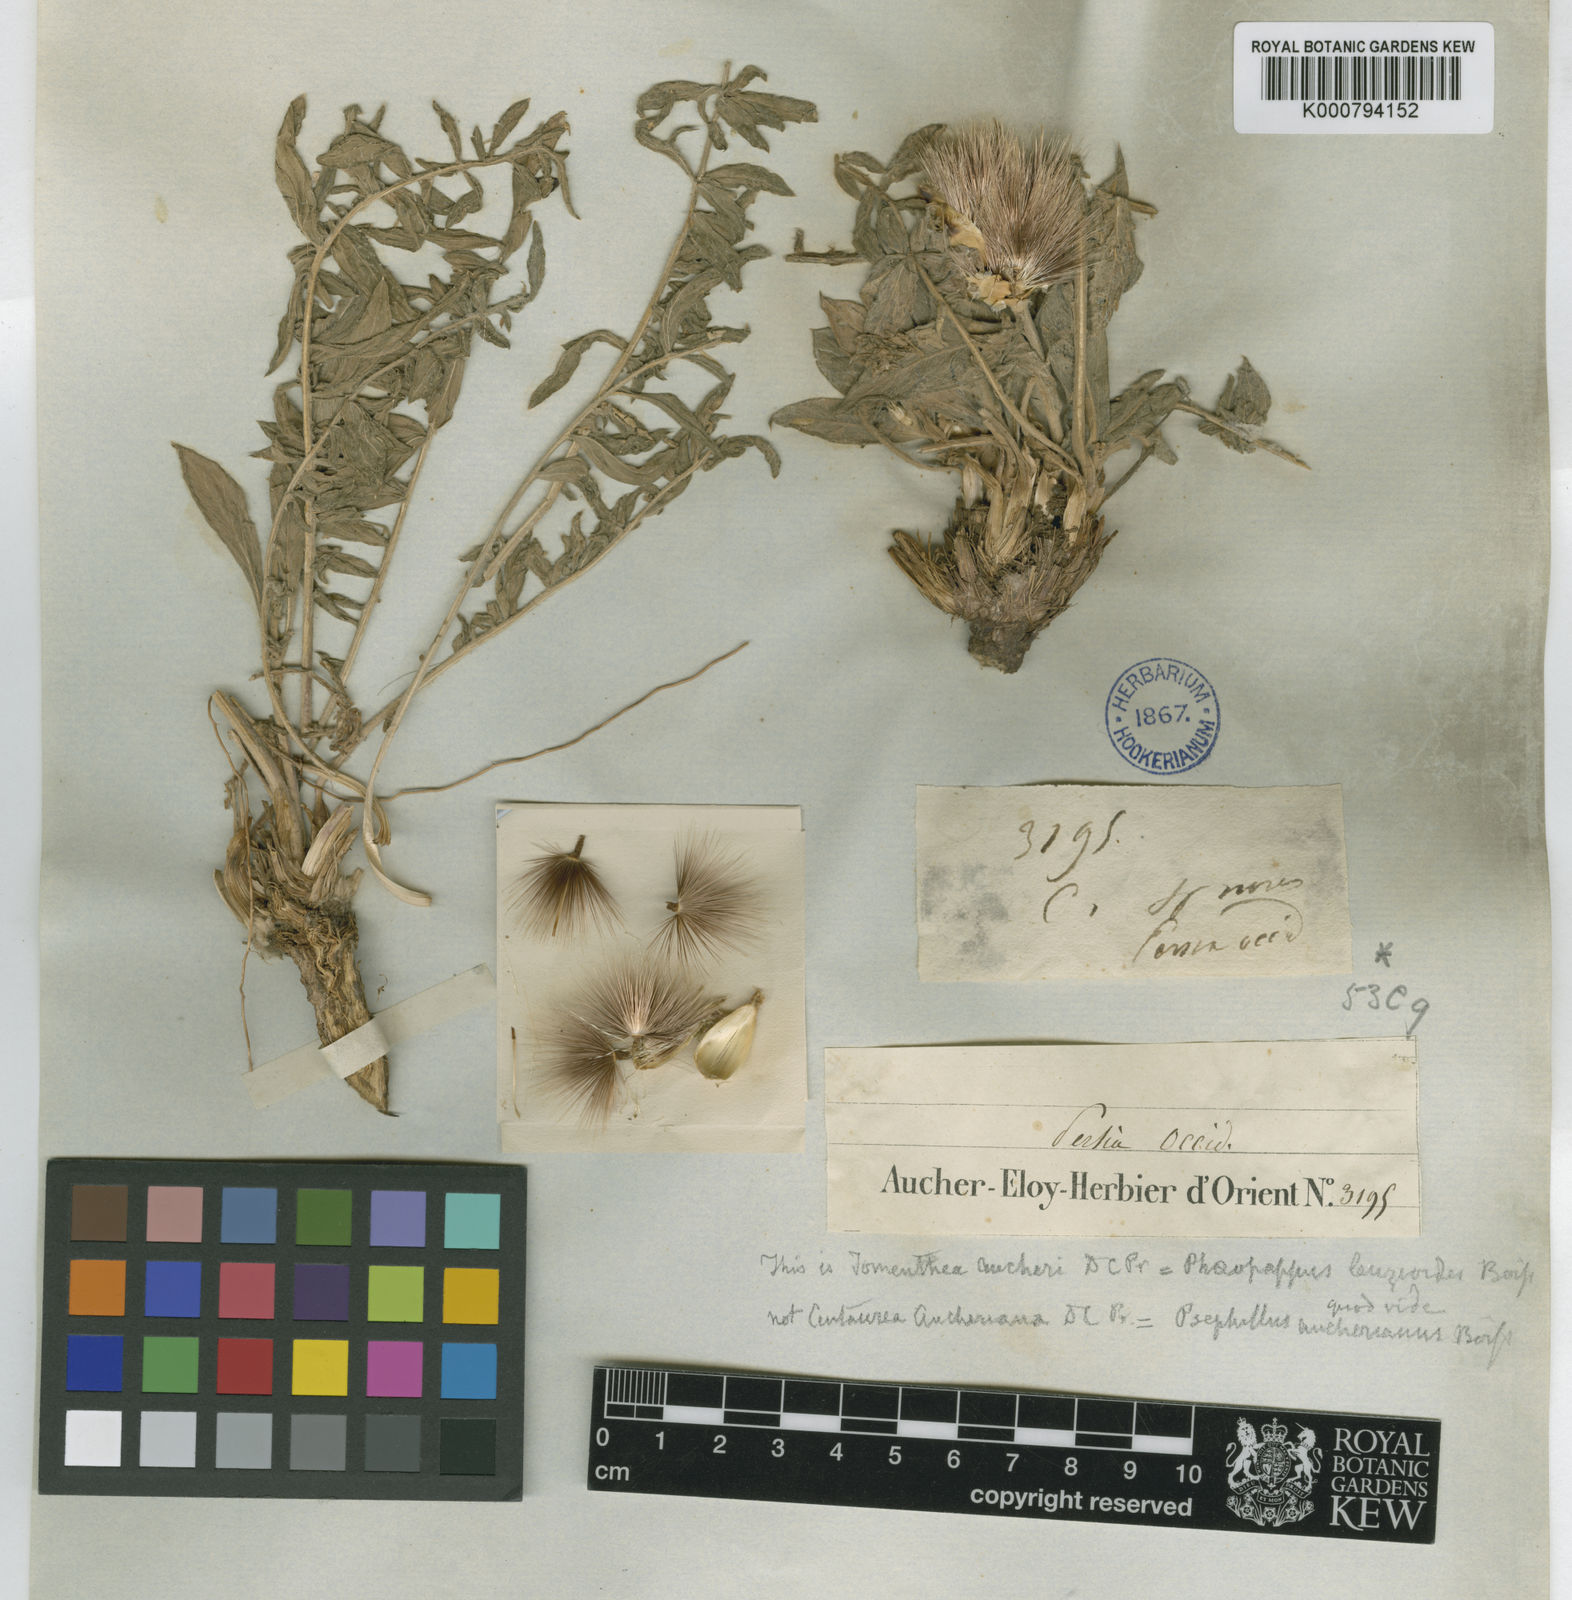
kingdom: Plantae
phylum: Tracheophyta
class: Magnoliopsida
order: Asterales
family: Asteraceae
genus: Centaurea
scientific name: Centaurea aucheri
